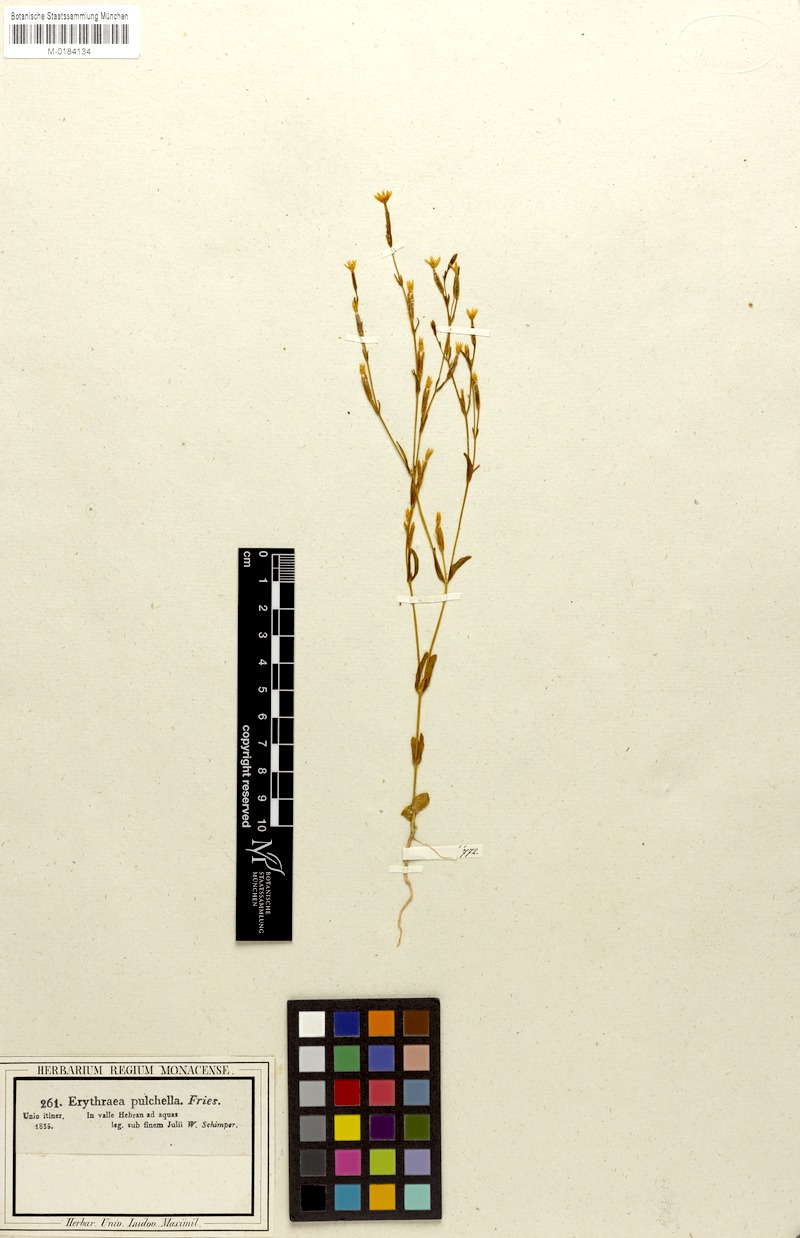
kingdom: Plantae
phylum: Tracheophyta
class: Magnoliopsida
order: Gentianales
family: Gentianaceae
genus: Centaurium
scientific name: Centaurium tenuiflorum
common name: Slender centaury
